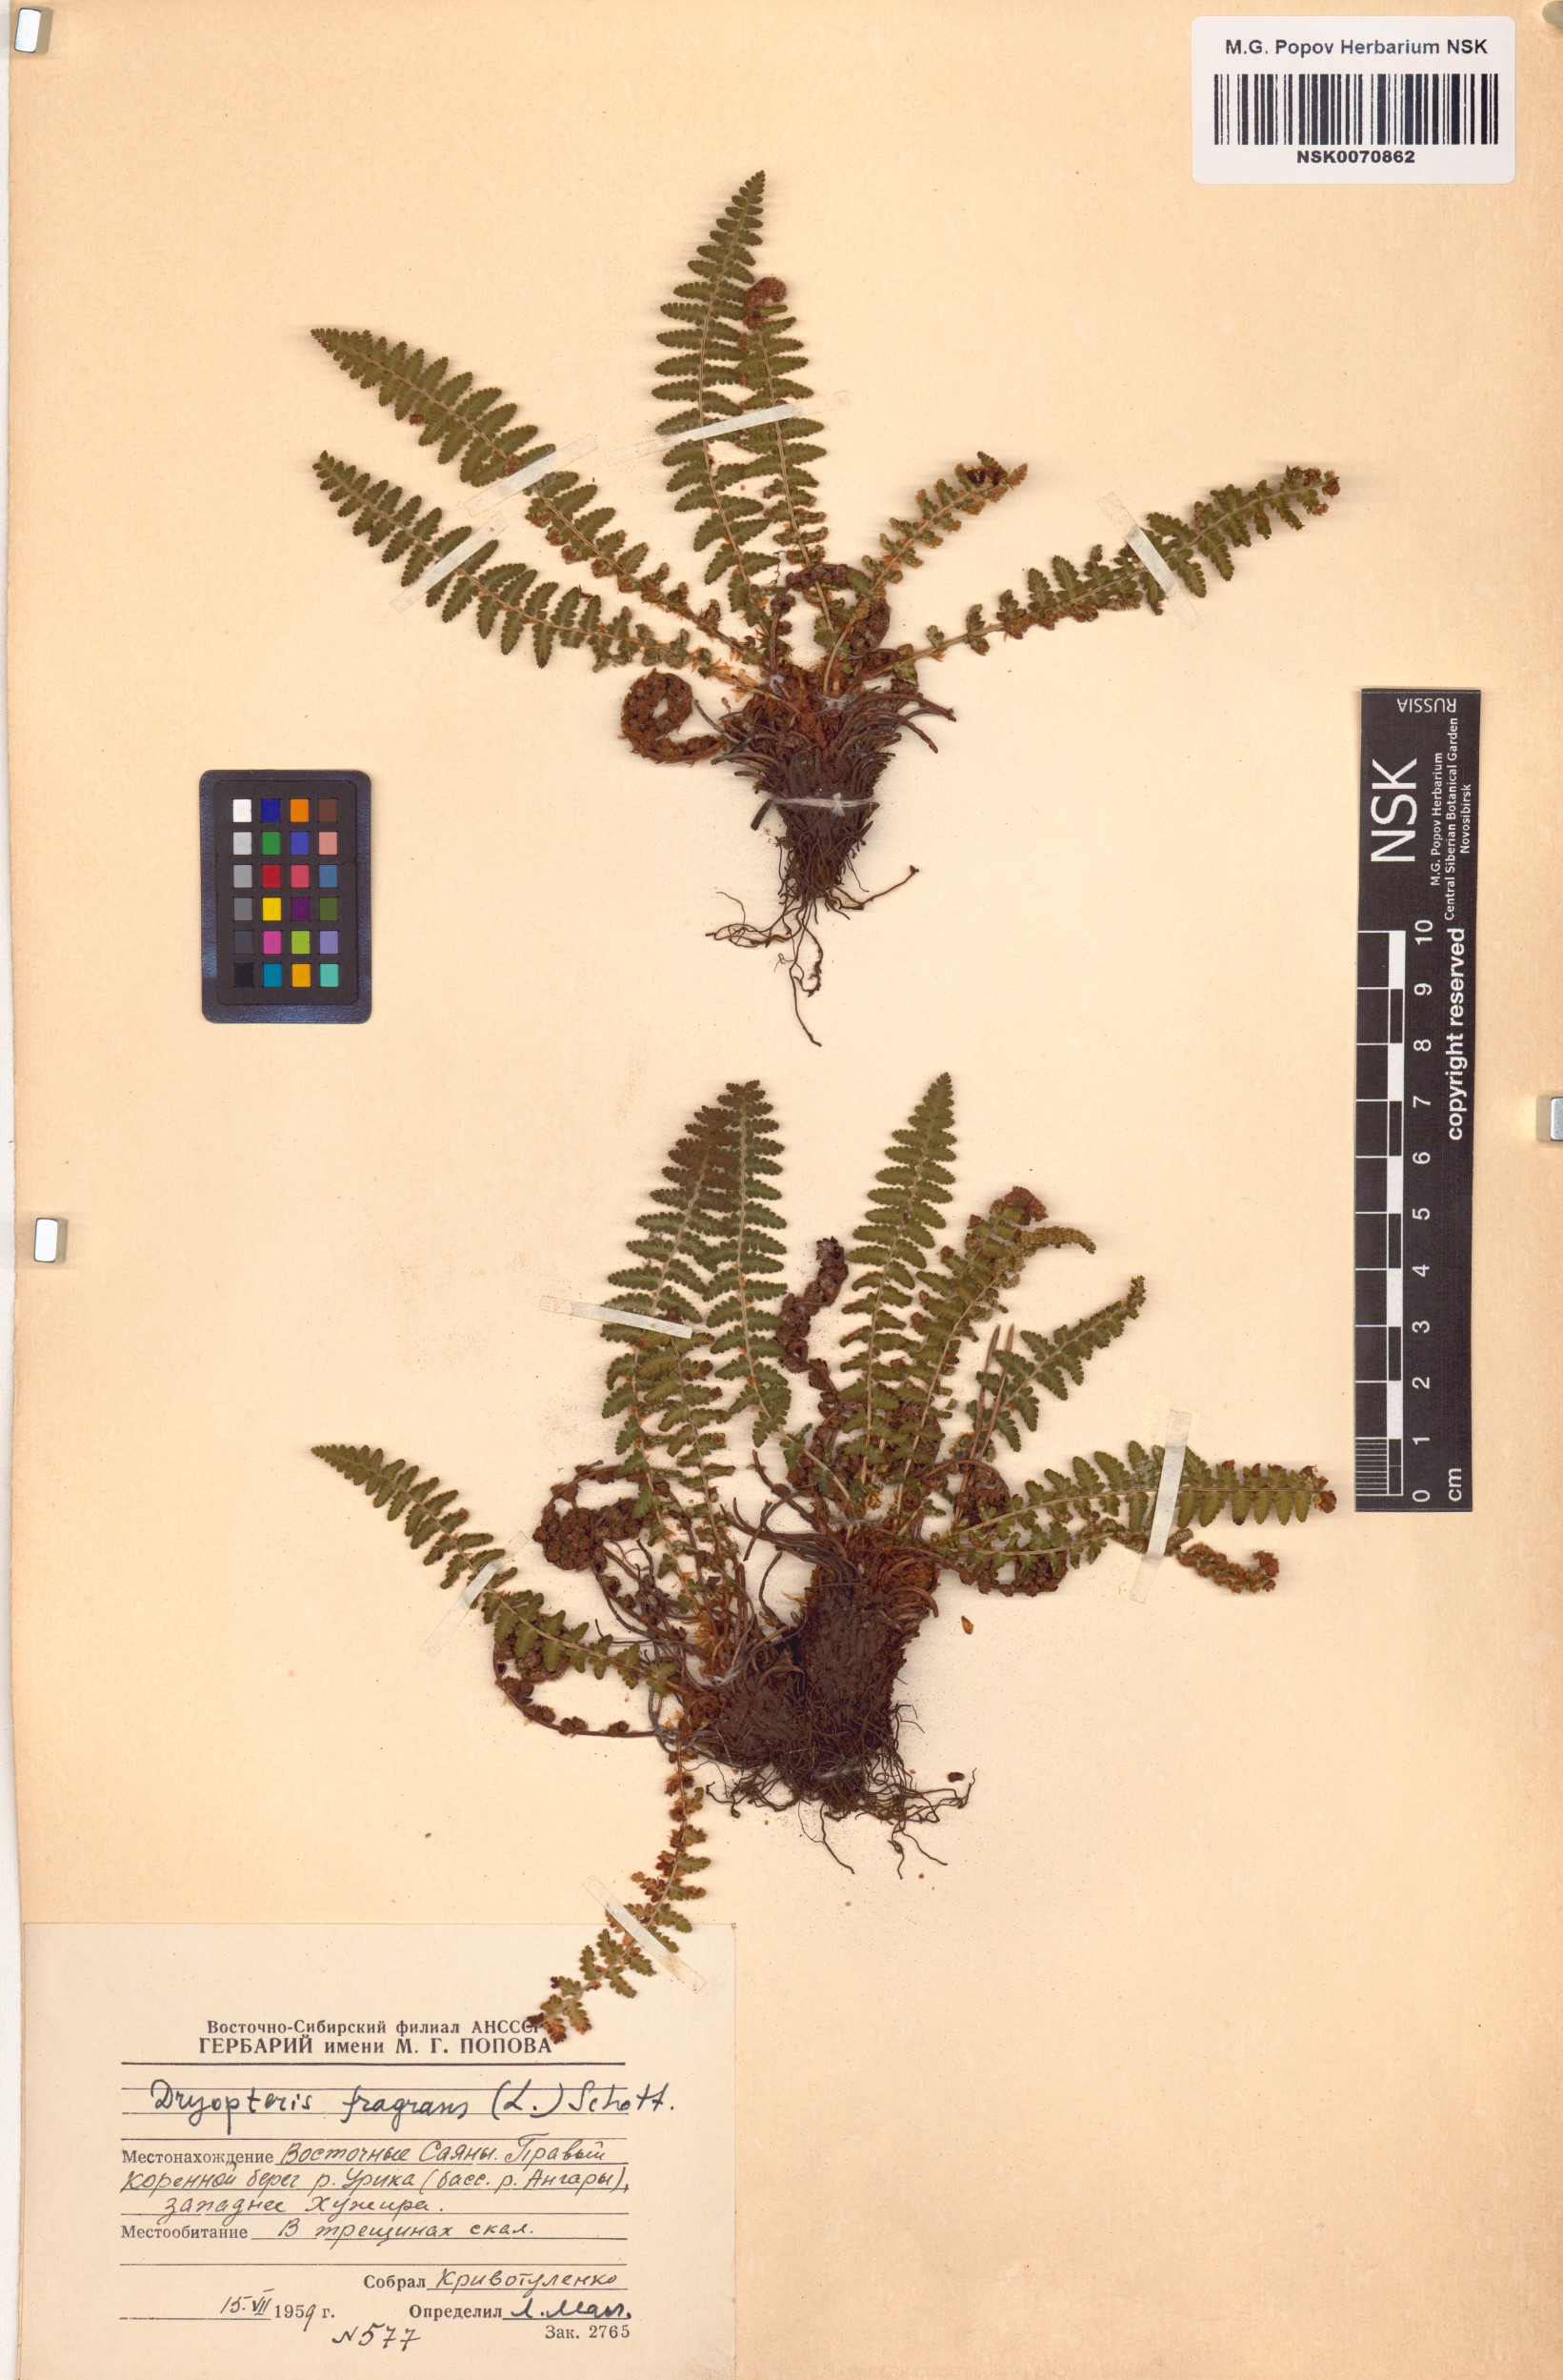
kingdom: Plantae
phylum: Tracheophyta
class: Polypodiopsida
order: Polypodiales
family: Dryopteridaceae
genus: Dryopteris
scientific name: Dryopteris fragrans
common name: Fragrant wood fern
